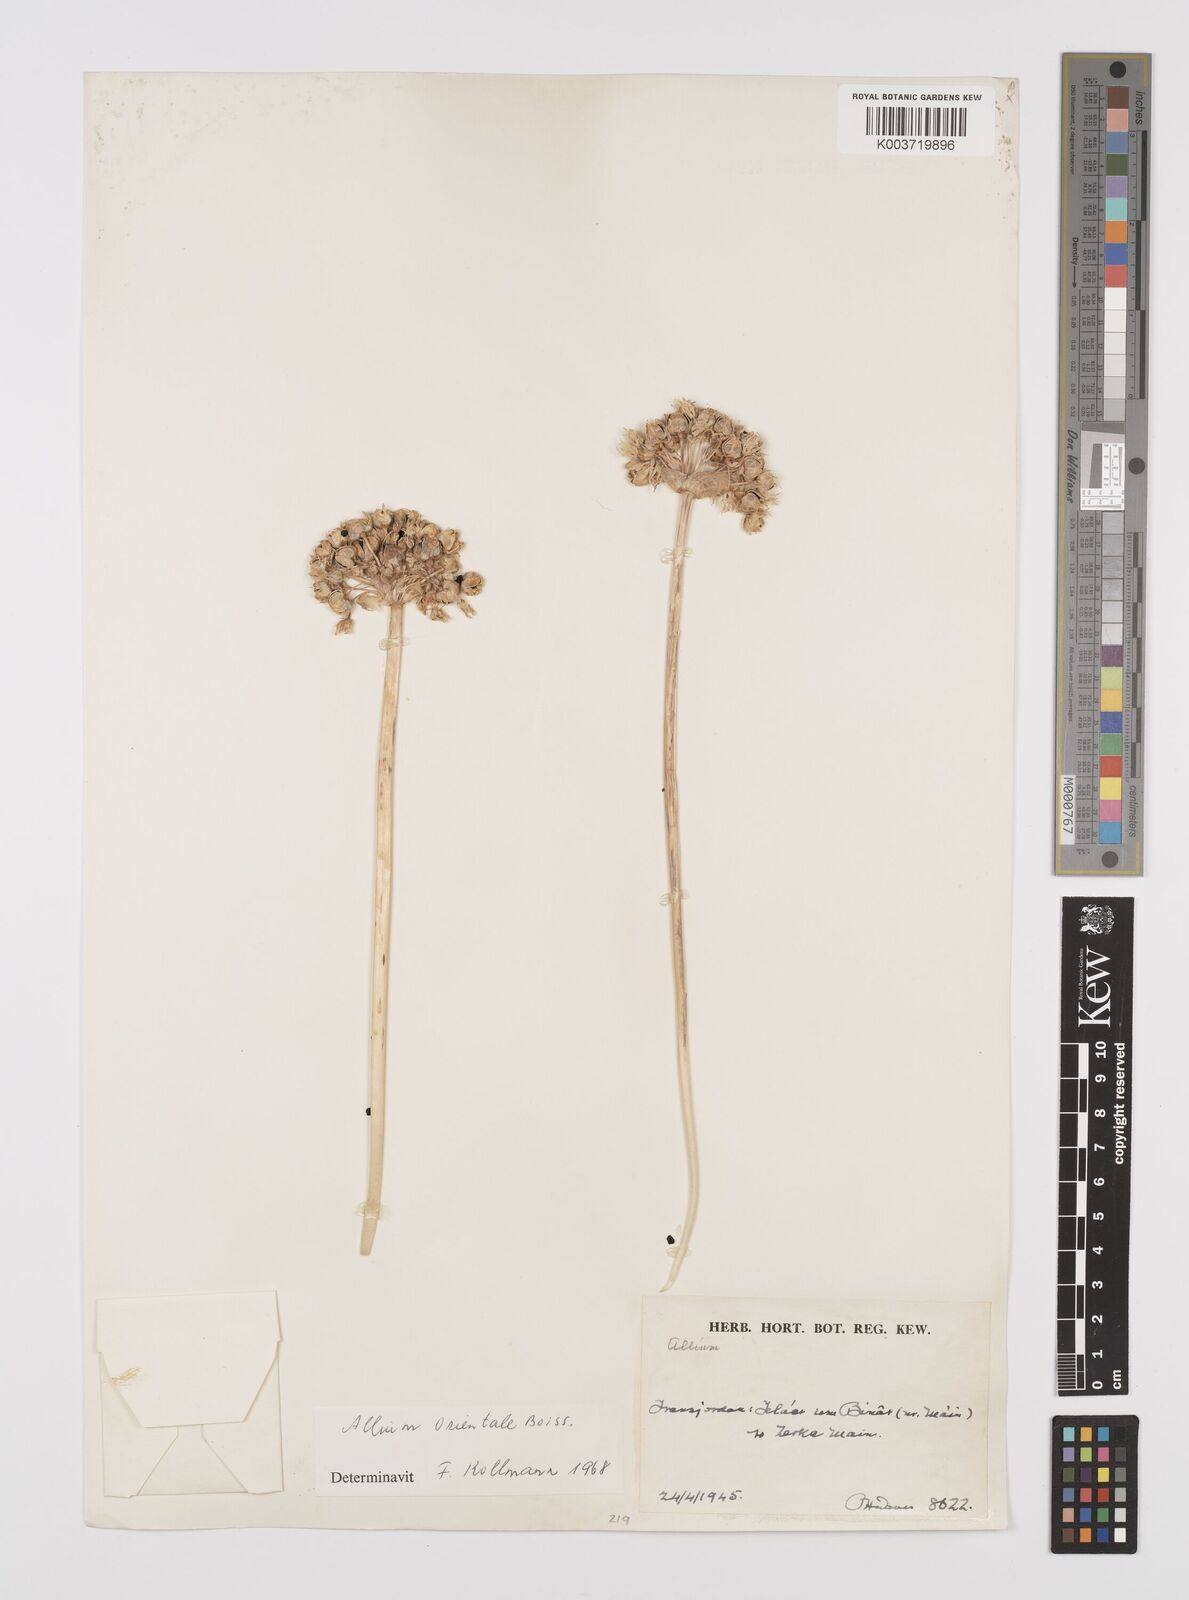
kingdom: Plantae
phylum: Tracheophyta
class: Liliopsida
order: Asparagales
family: Amaryllidaceae
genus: Allium
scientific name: Allium orientale
